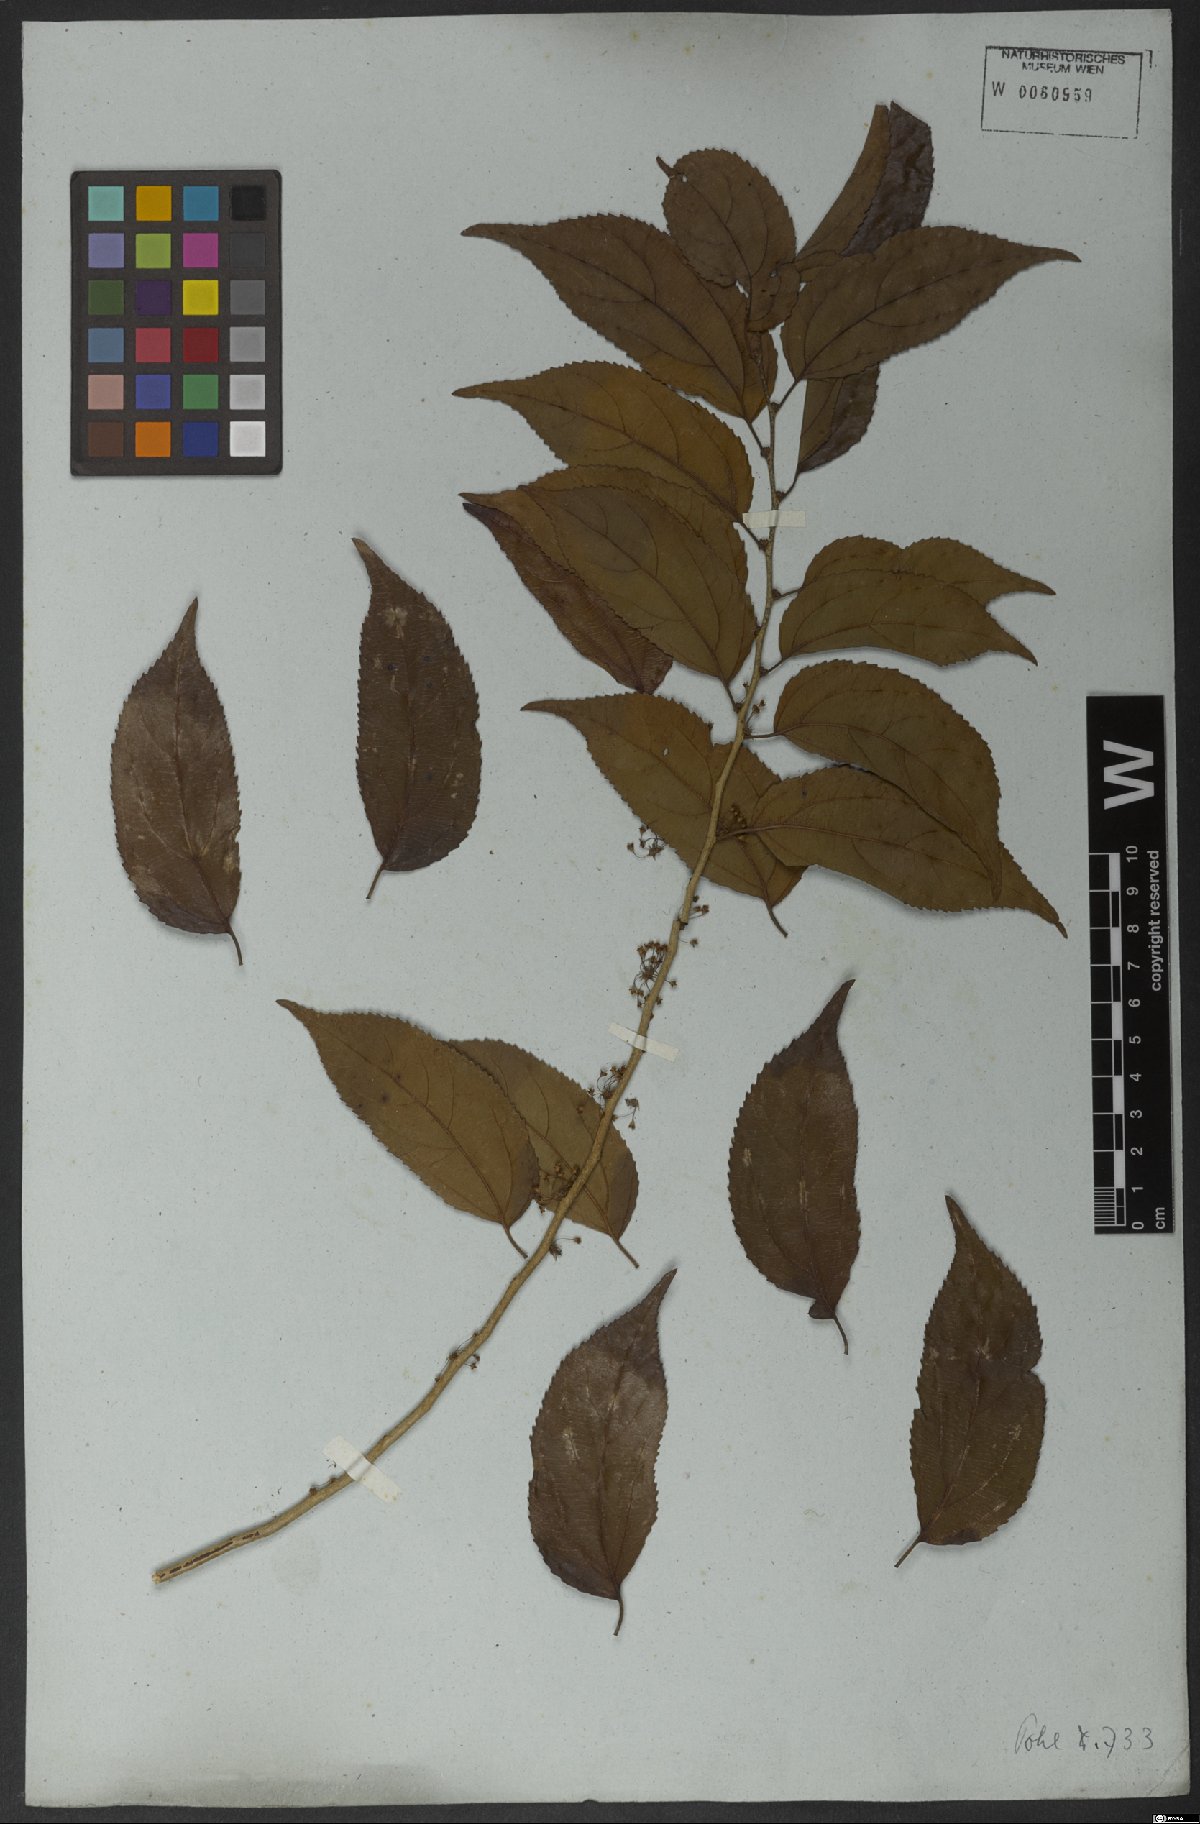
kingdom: Plantae
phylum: Tracheophyta
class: Magnoliopsida
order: Malpighiales
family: Salicaceae
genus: Casearia
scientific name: Casearia obliqua
